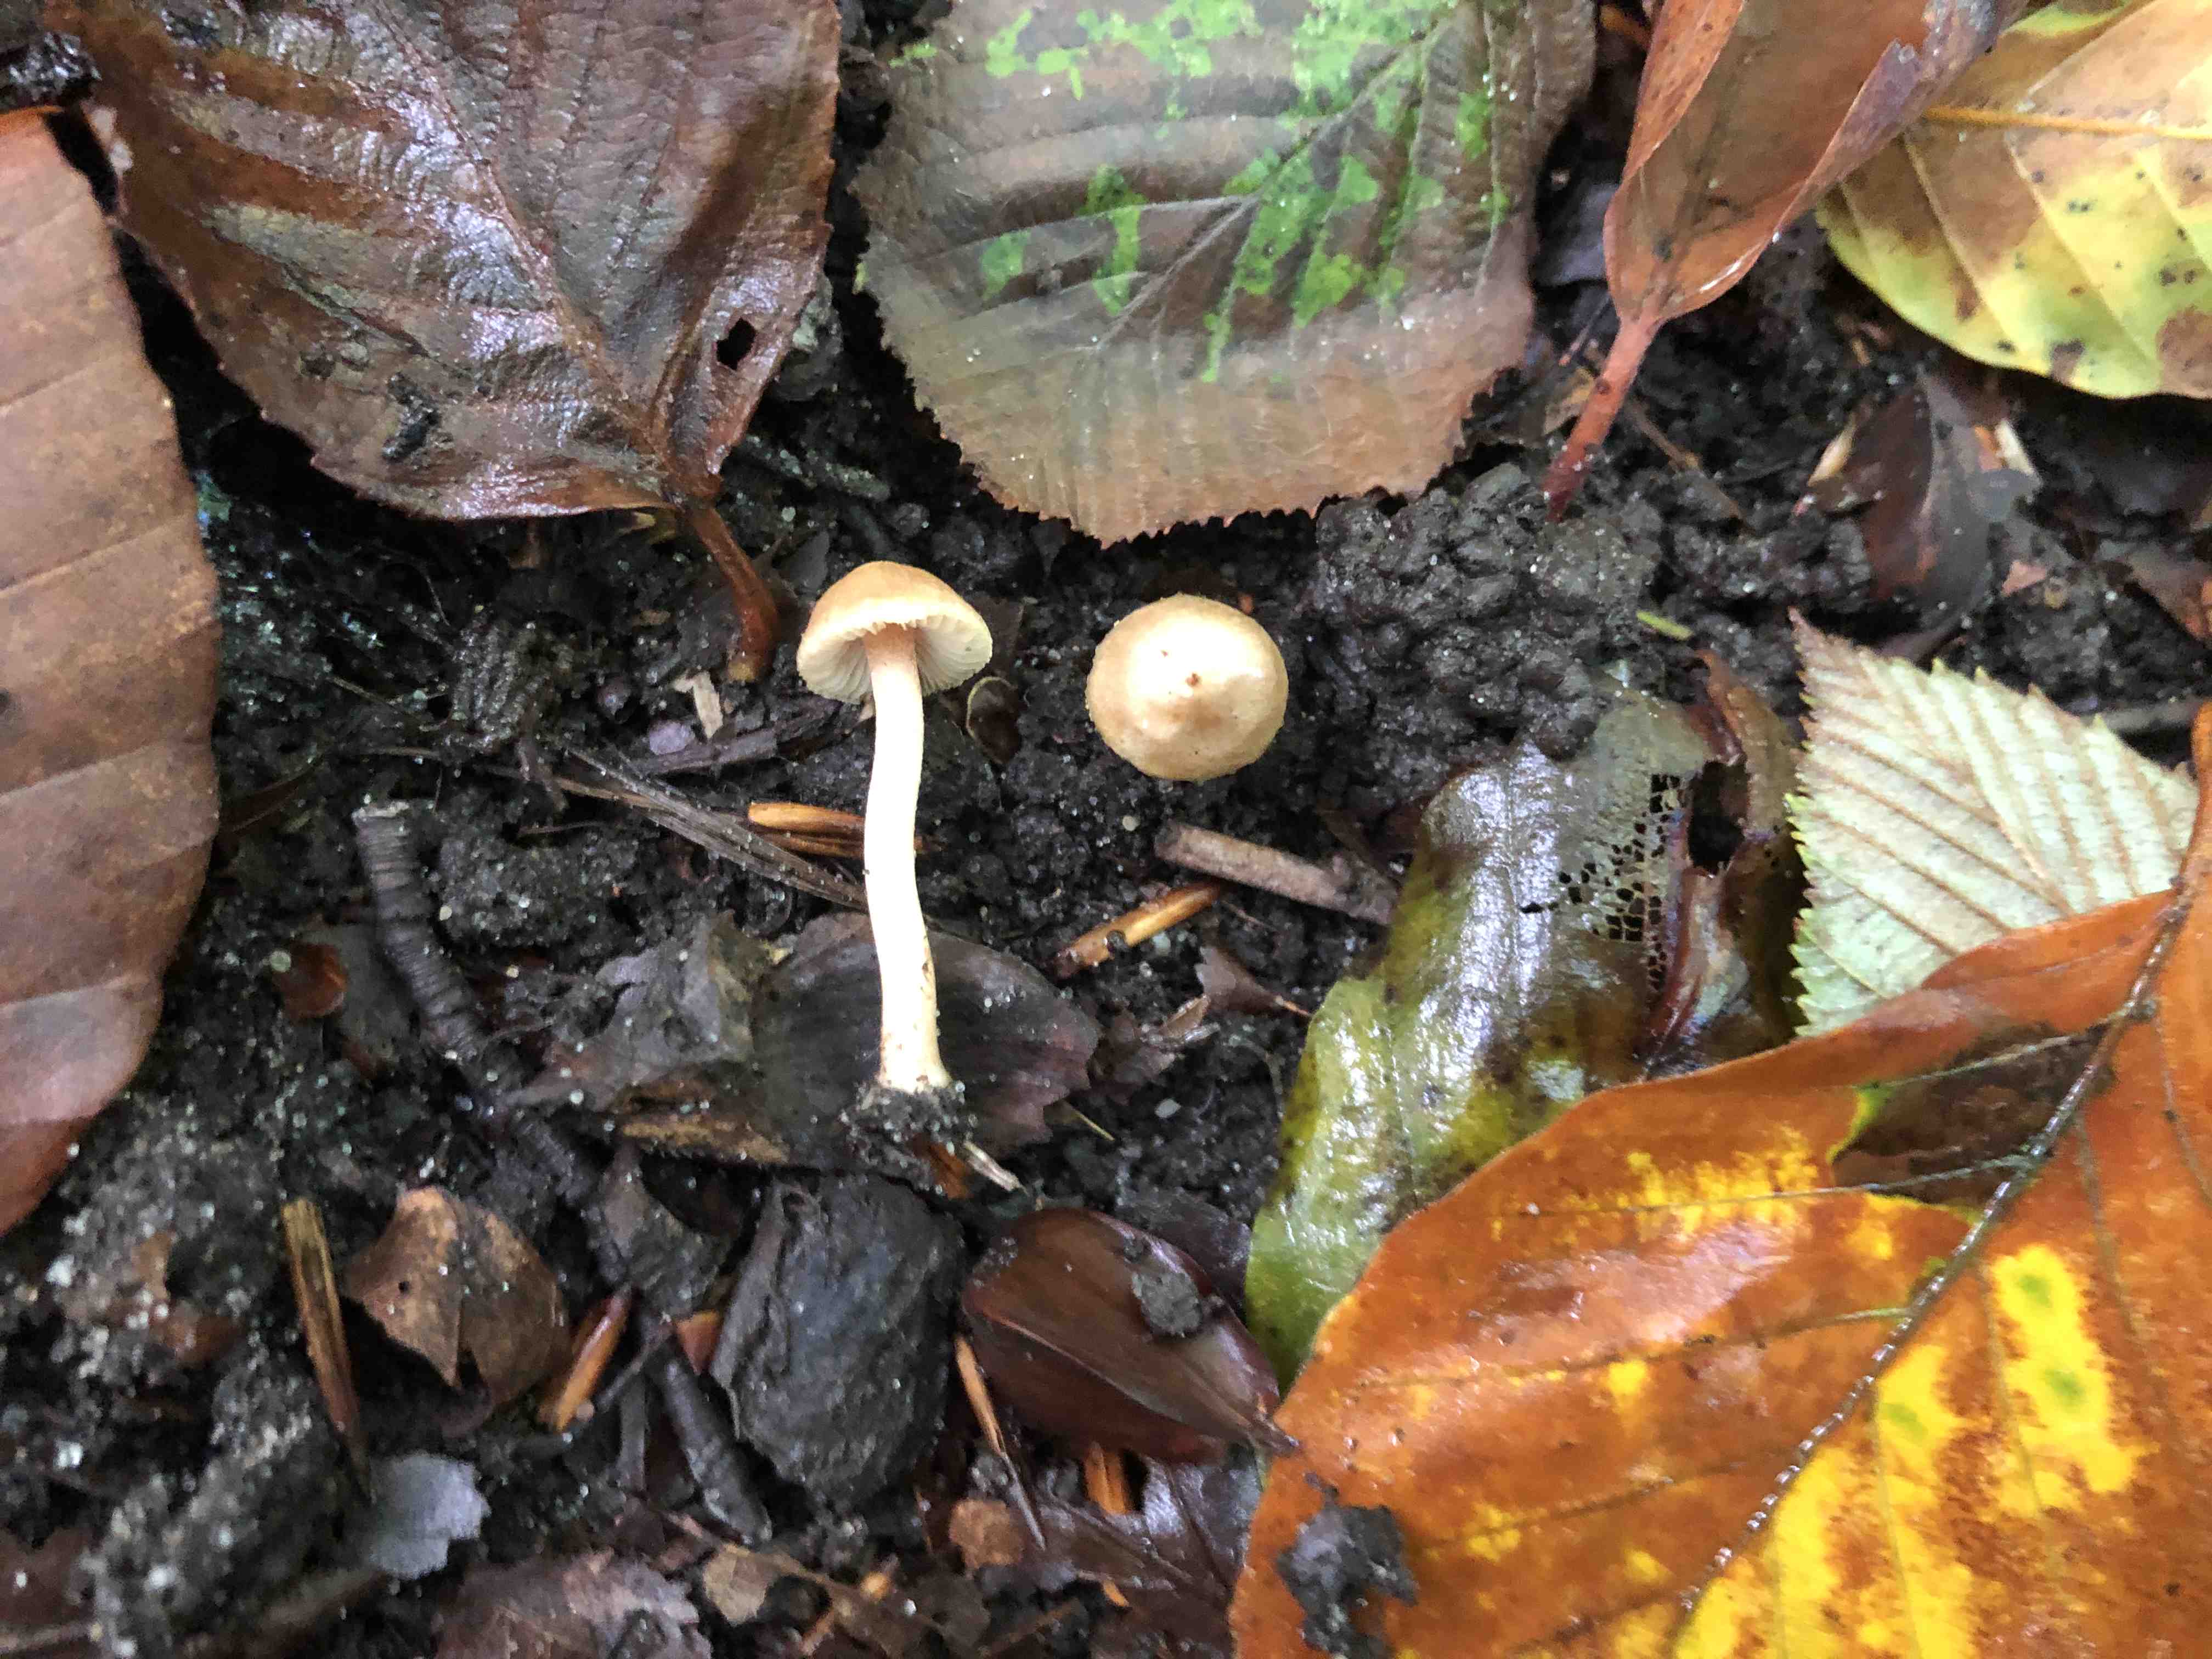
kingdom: Fungi
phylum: Basidiomycota
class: Agaricomycetes
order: Agaricales
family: Inocybaceae
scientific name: Inocybaceae
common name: trævlhatfamilien
